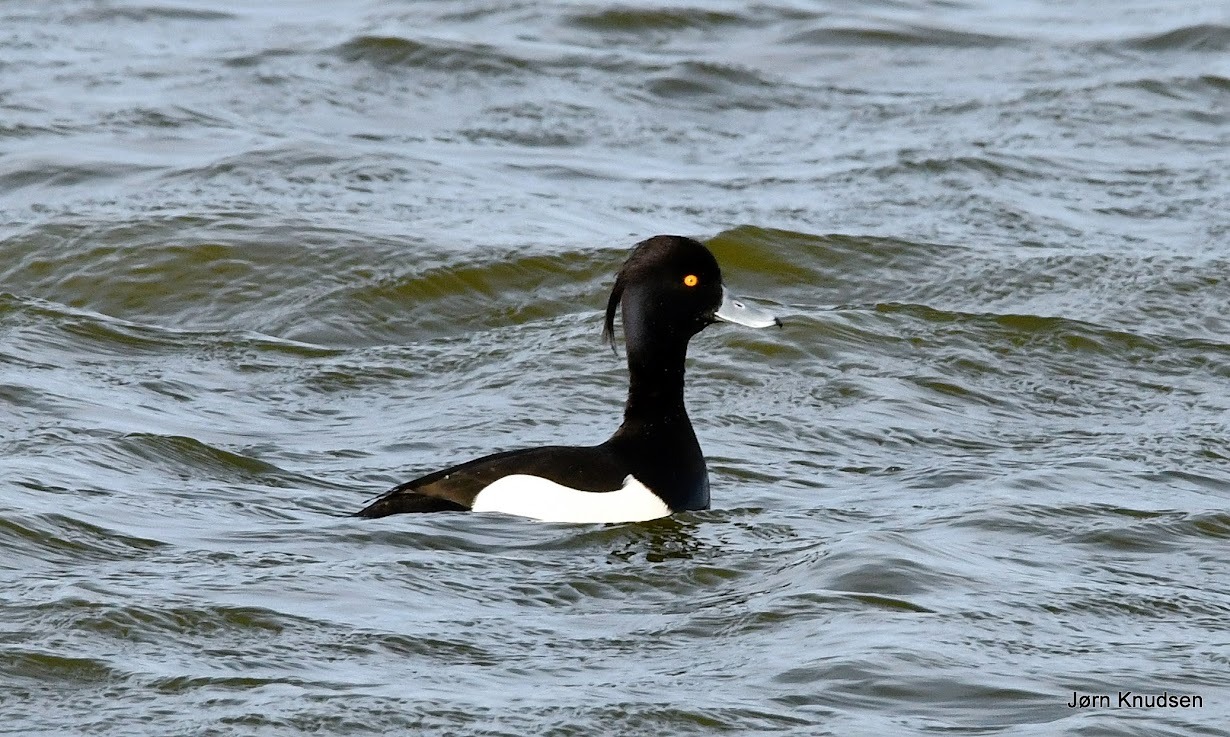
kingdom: Animalia
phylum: Chordata
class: Aves
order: Anseriformes
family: Anatidae
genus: Aythya
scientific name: Aythya fuligula
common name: Troldand
